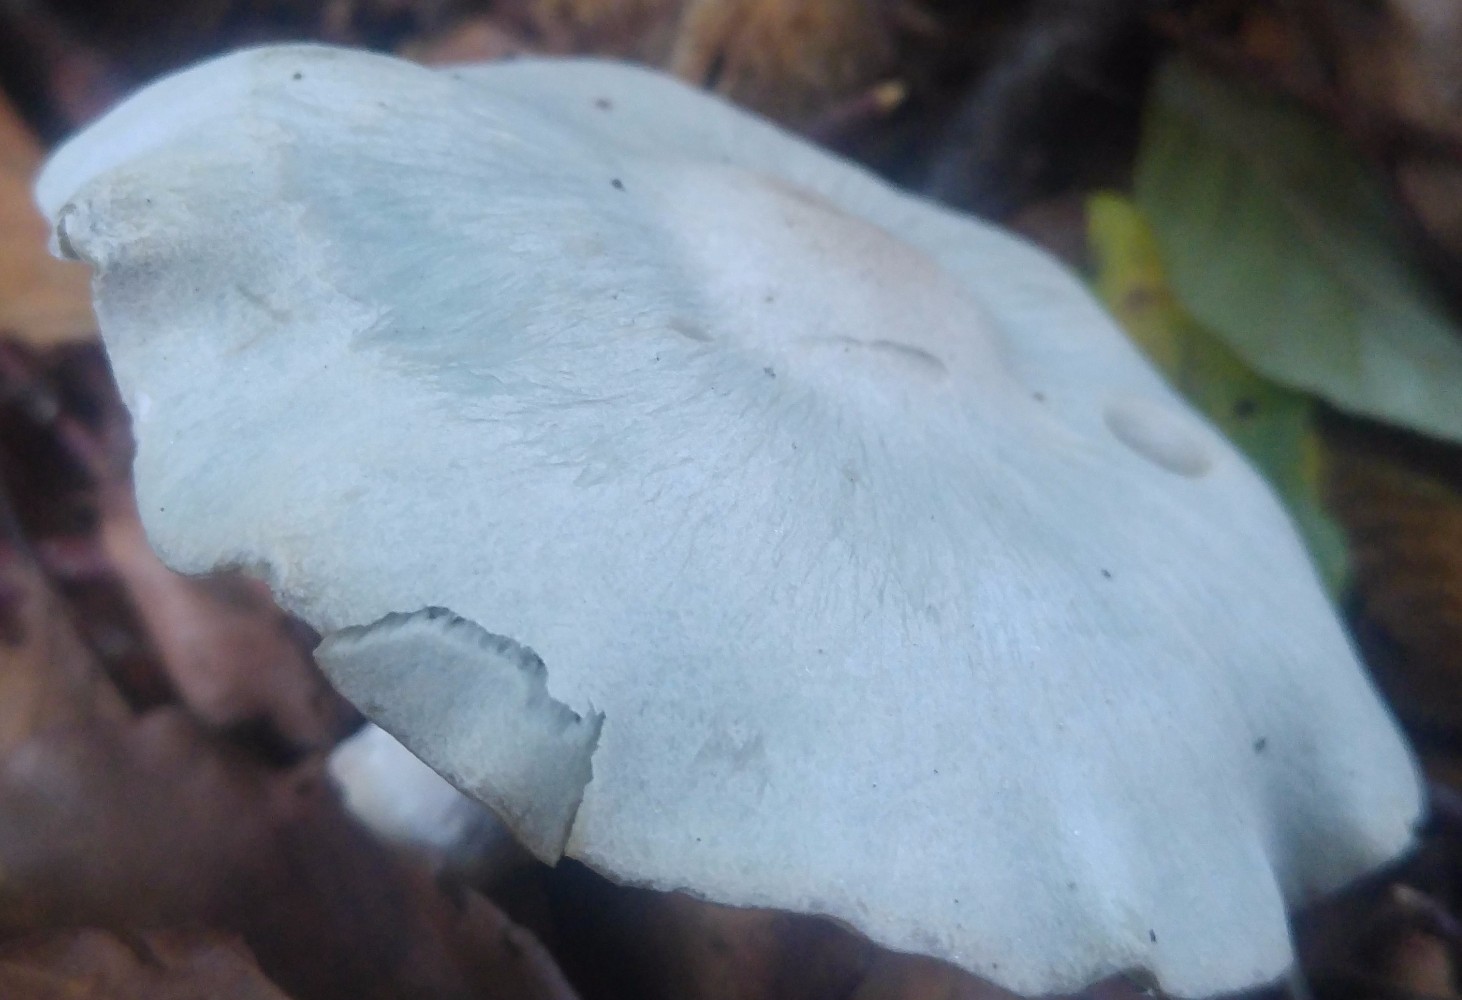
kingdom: Fungi
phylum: Basidiomycota
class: Agaricomycetes
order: Agaricales
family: Tricholomataceae
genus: Clitocybe
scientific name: Clitocybe odora
